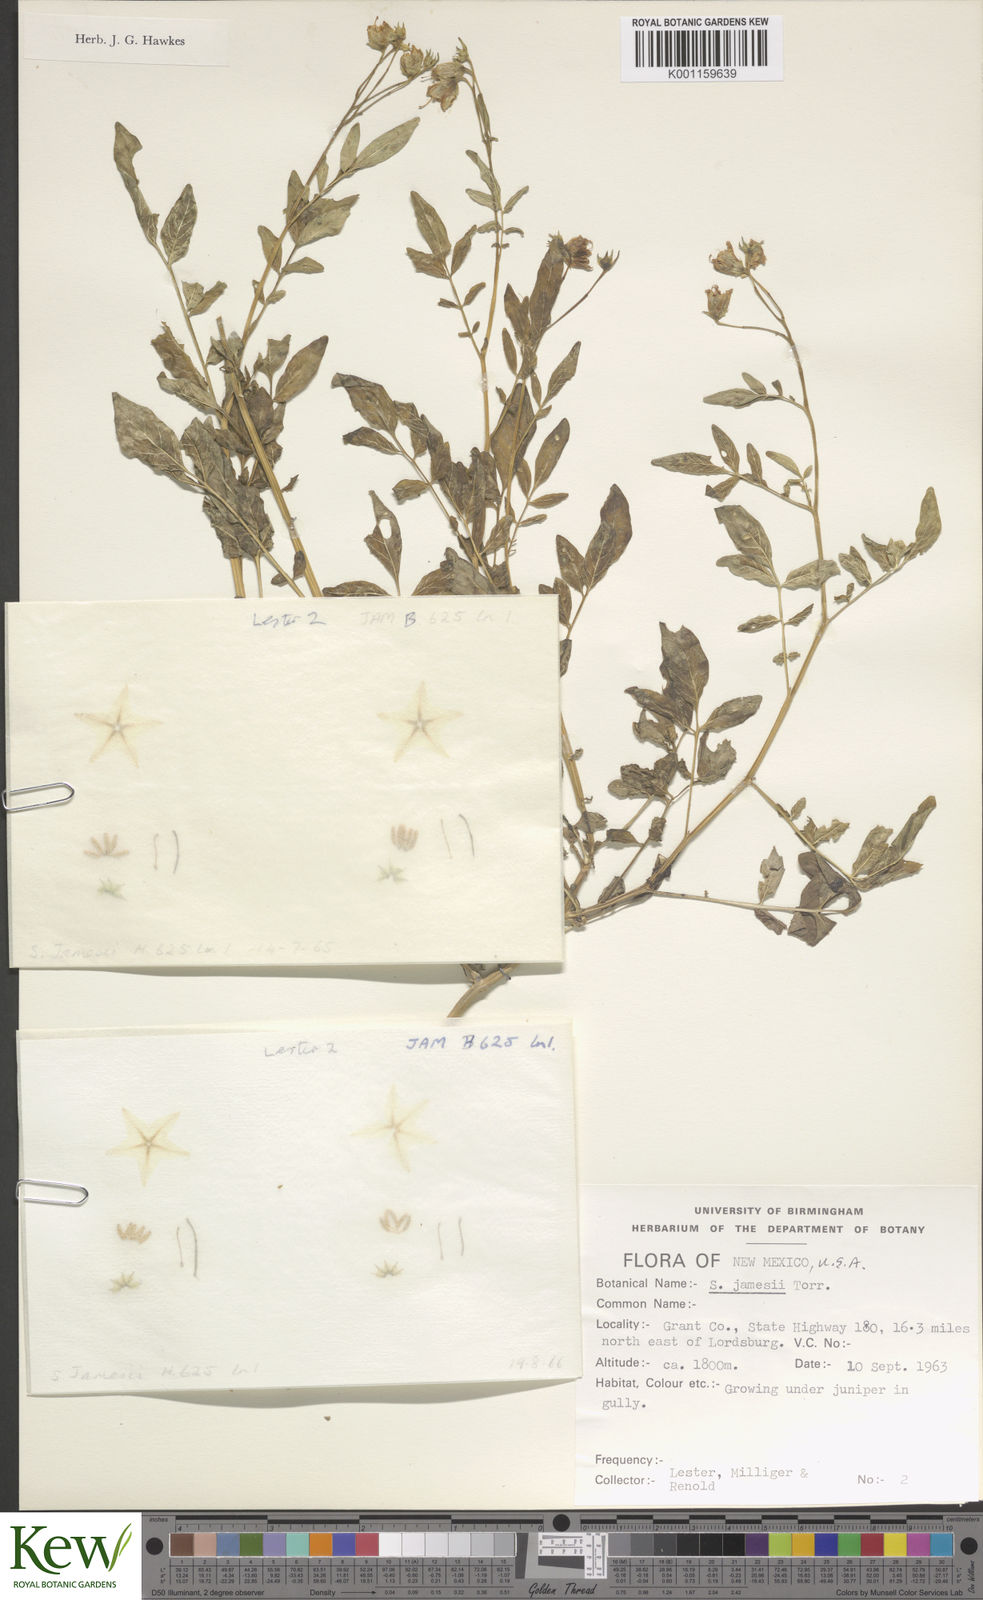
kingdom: Plantae
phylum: Tracheophyta
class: Magnoliopsida
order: Solanales
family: Solanaceae
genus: Solanum
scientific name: Solanum jamesii
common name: Wild potato
